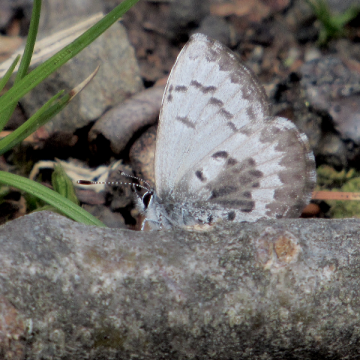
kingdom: Animalia
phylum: Arthropoda
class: Insecta
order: Lepidoptera
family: Lycaenidae
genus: Celastrina
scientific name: Celastrina lucia
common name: Northern Spring Azure
